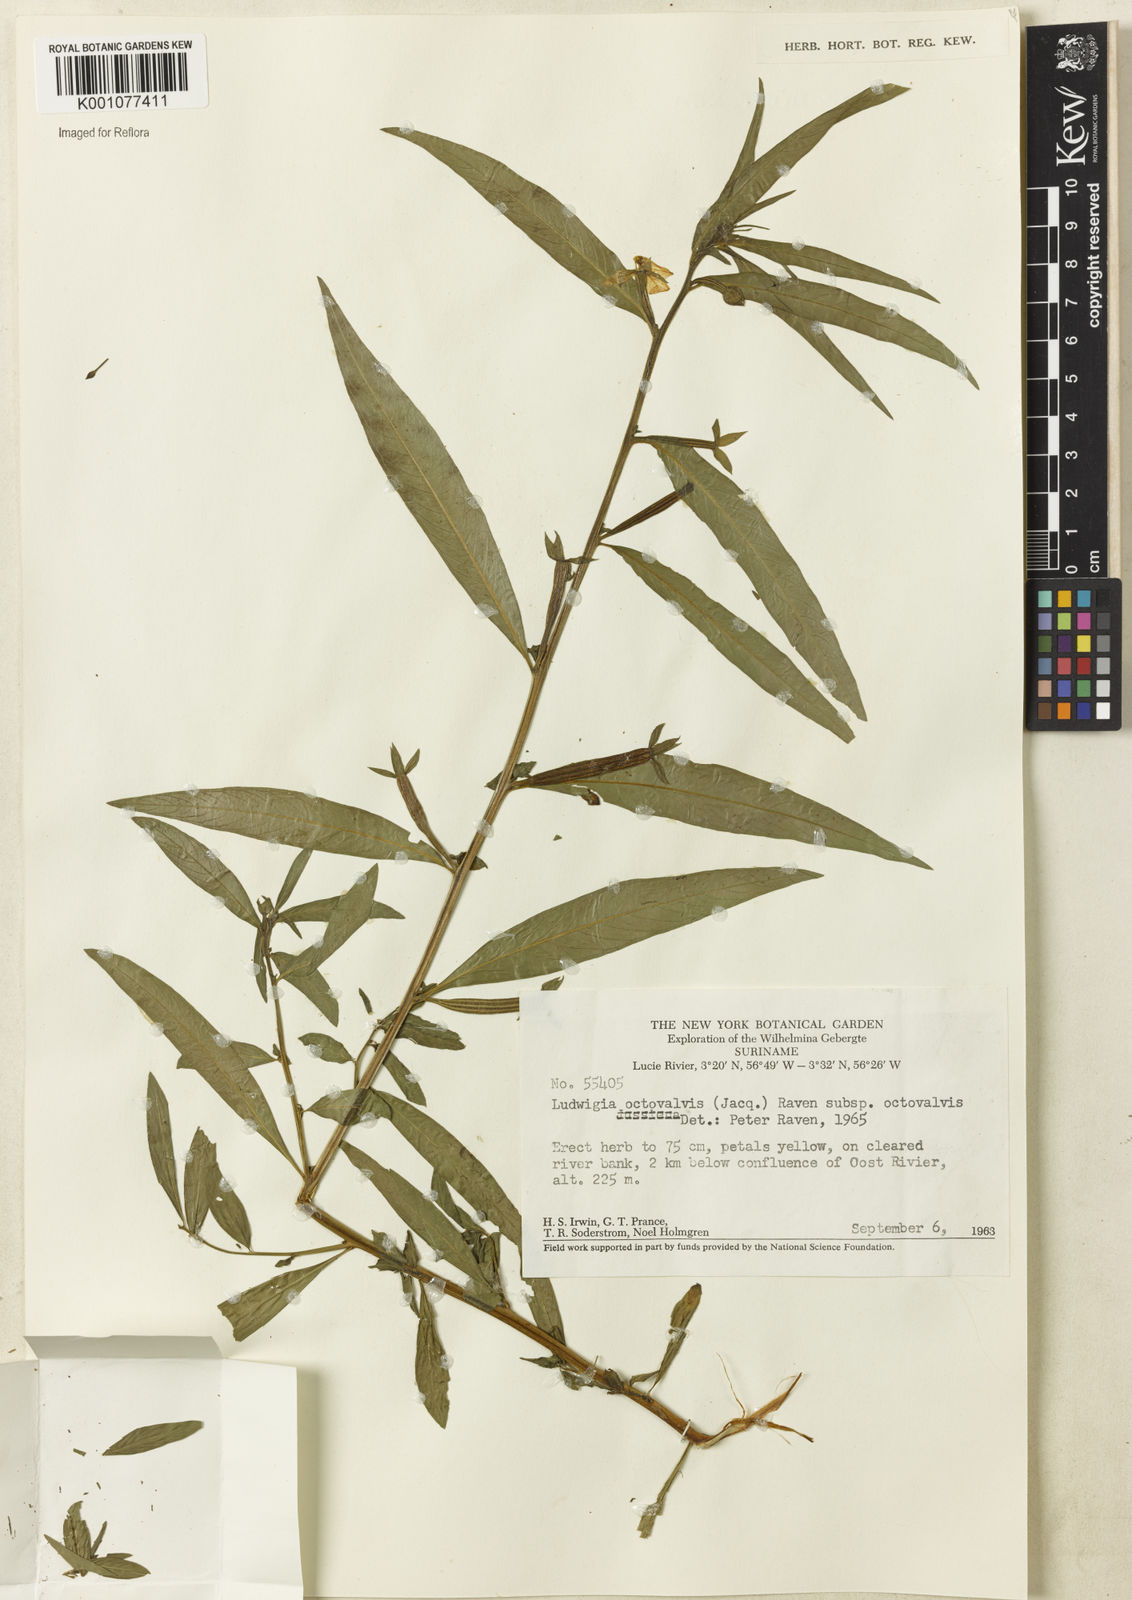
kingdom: Plantae
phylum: Tracheophyta
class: Magnoliopsida
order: Myrtales
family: Onagraceae
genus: Ludwigia
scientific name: Ludwigia octovalvis
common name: Water-primrose
